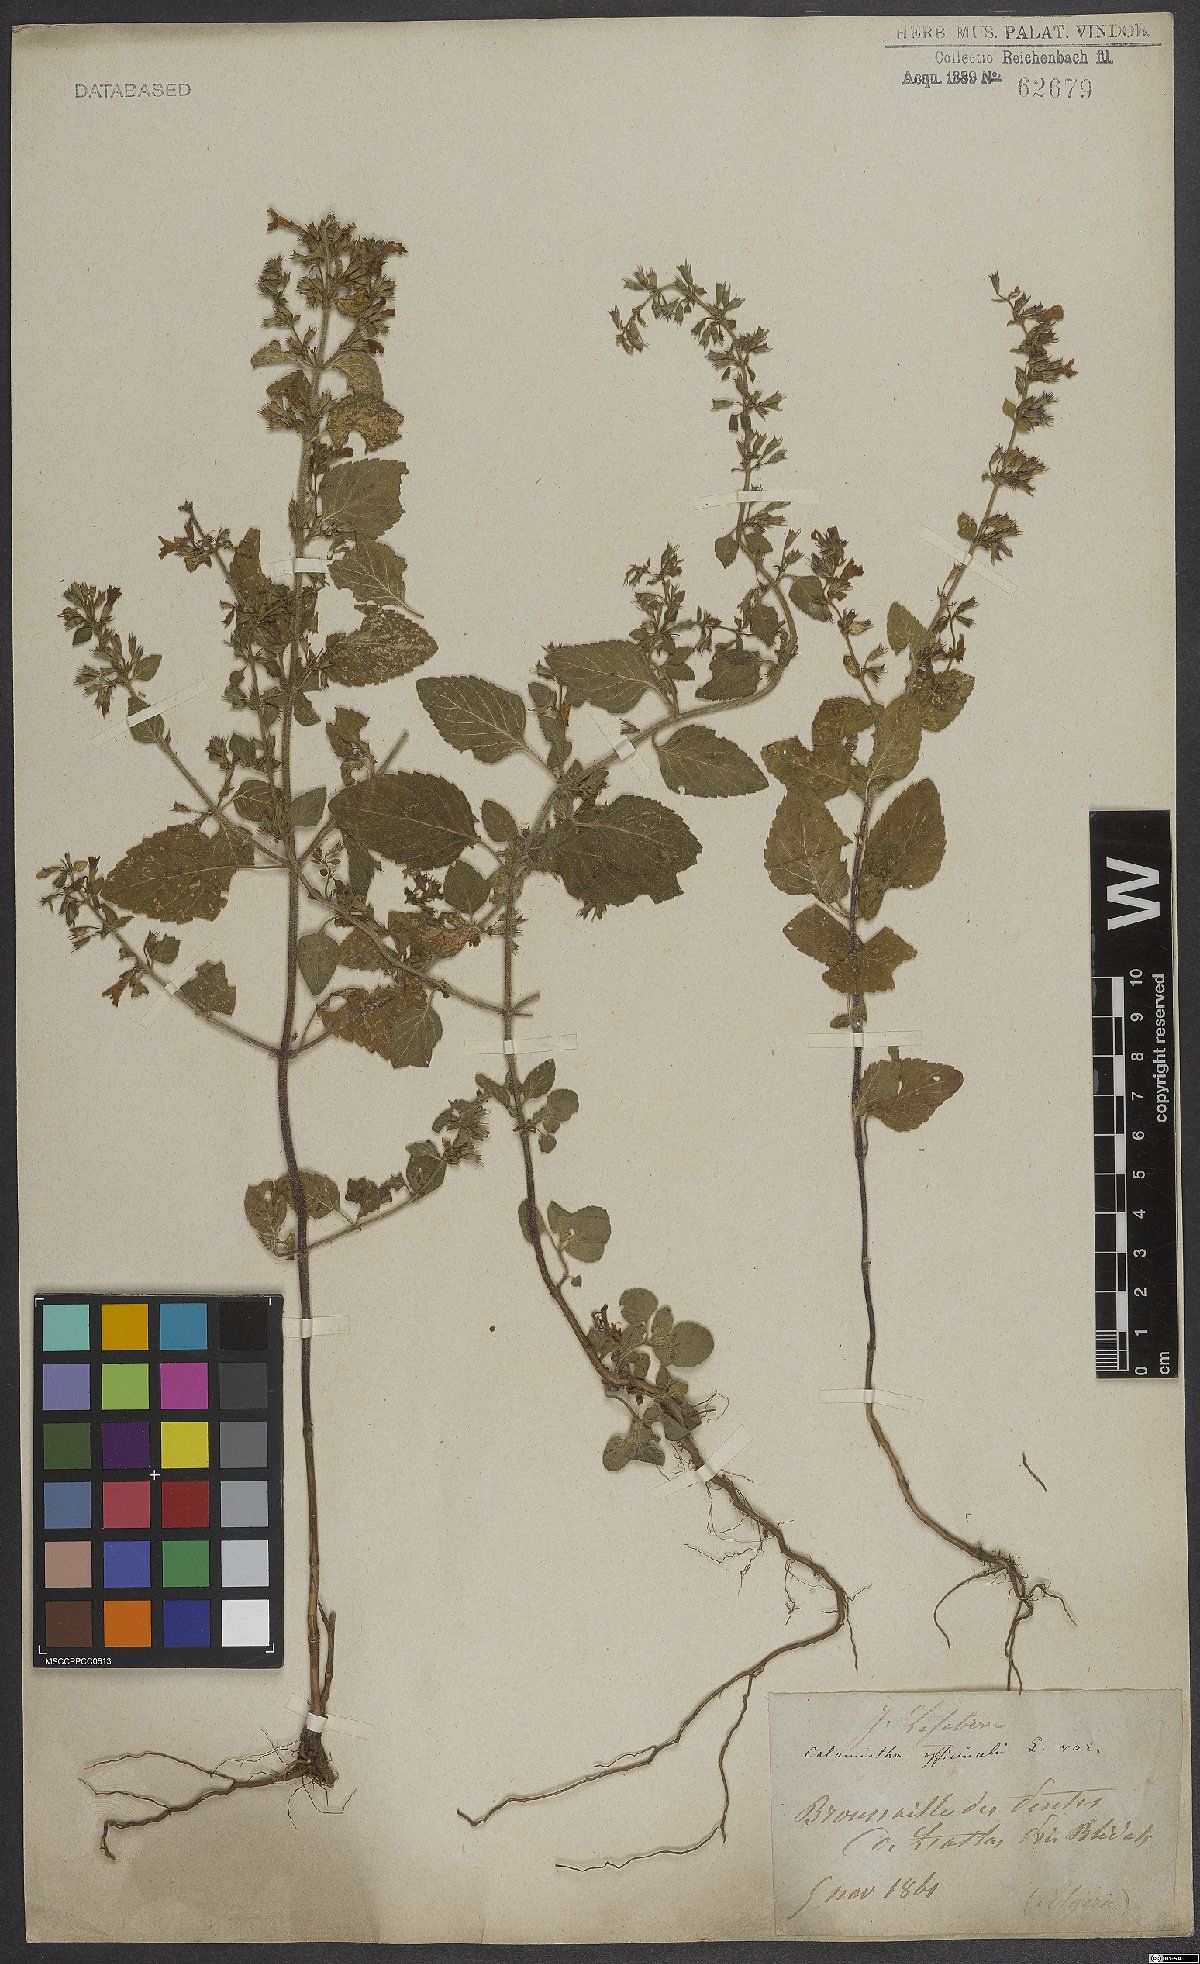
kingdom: Plantae
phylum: Tracheophyta
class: Magnoliopsida
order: Lamiales
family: Lamiaceae
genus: Clinopodium
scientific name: Clinopodium nepeta
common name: Lesser calamint
